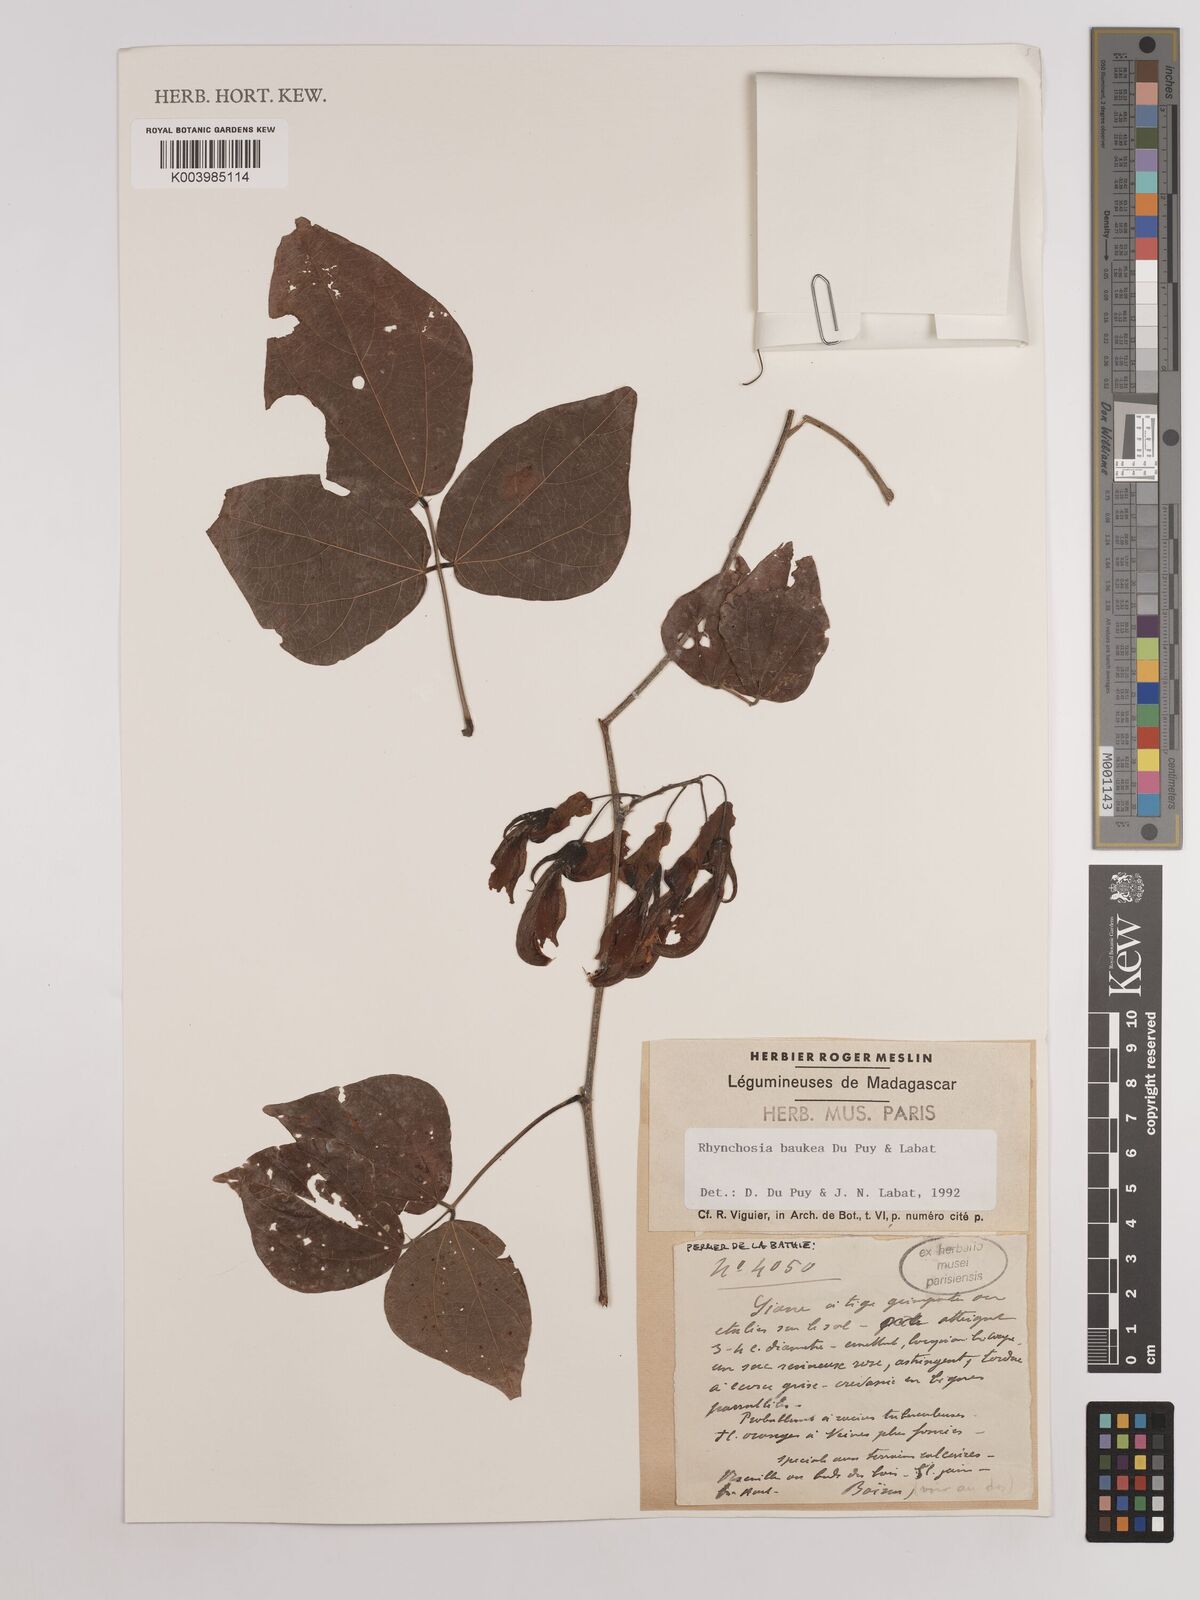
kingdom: Plantae
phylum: Tracheophyta
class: Magnoliopsida
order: Fabales
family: Fabaceae
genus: Rhynchosia
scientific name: Rhynchosia baukea
